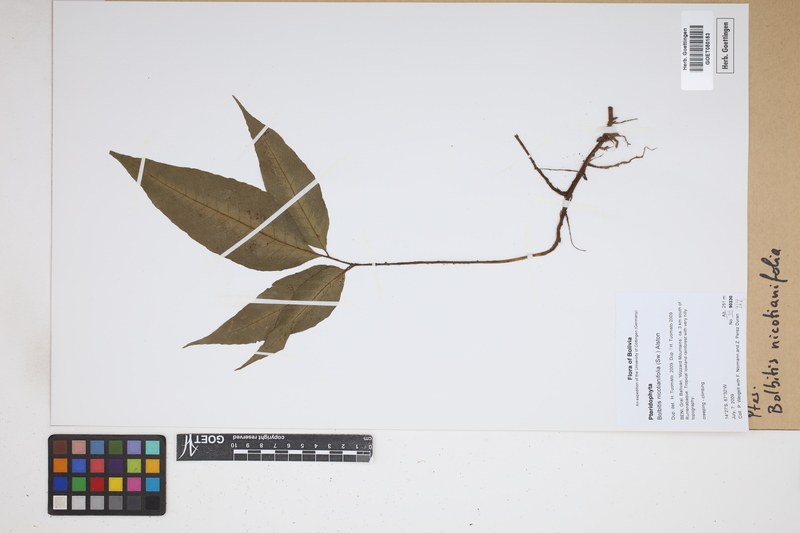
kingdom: Plantae
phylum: Tracheophyta
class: Polypodiopsida
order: Polypodiales
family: Dryopteridaceae
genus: Mickelia
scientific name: Mickelia nicotianifolia
